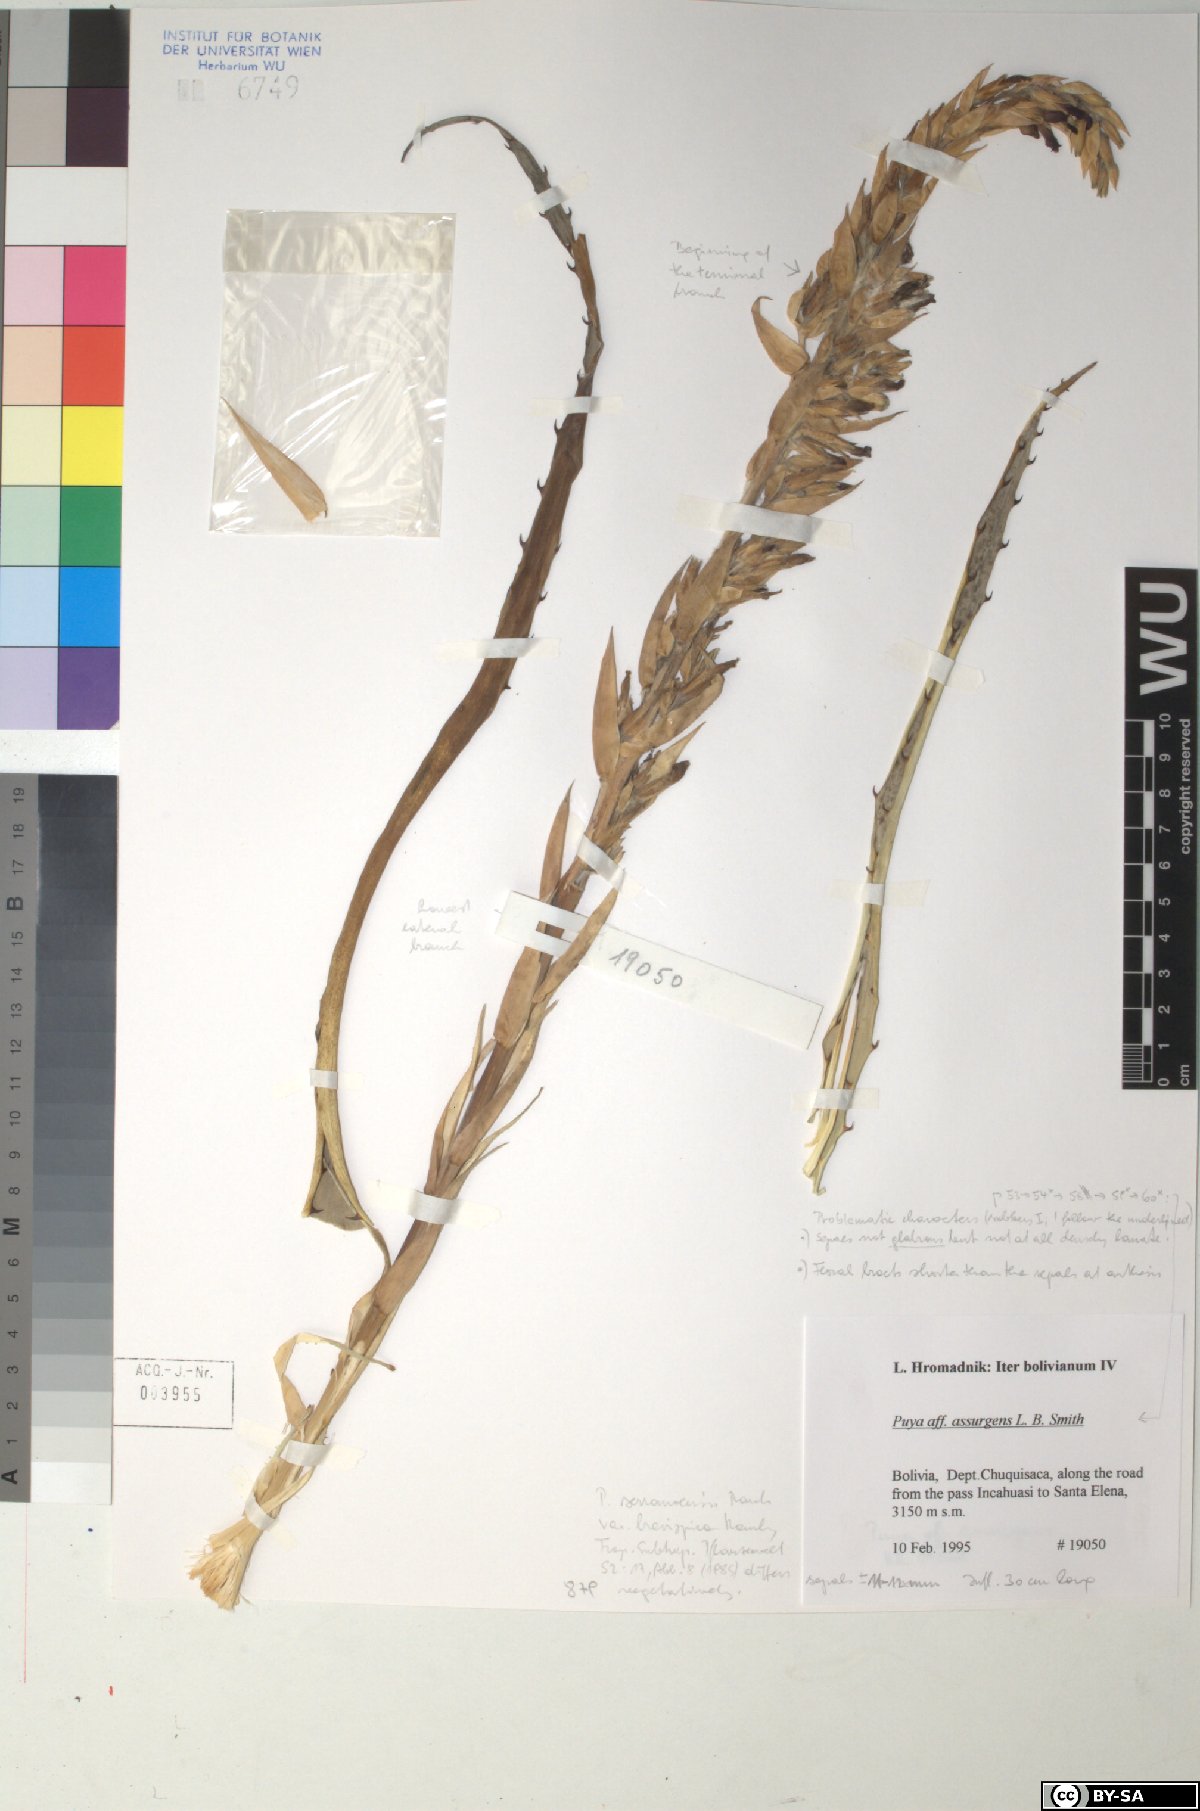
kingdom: Plantae
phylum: Tracheophyta
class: Liliopsida
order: Poales
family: Bromeliaceae
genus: Puya
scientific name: Puya assurgens
